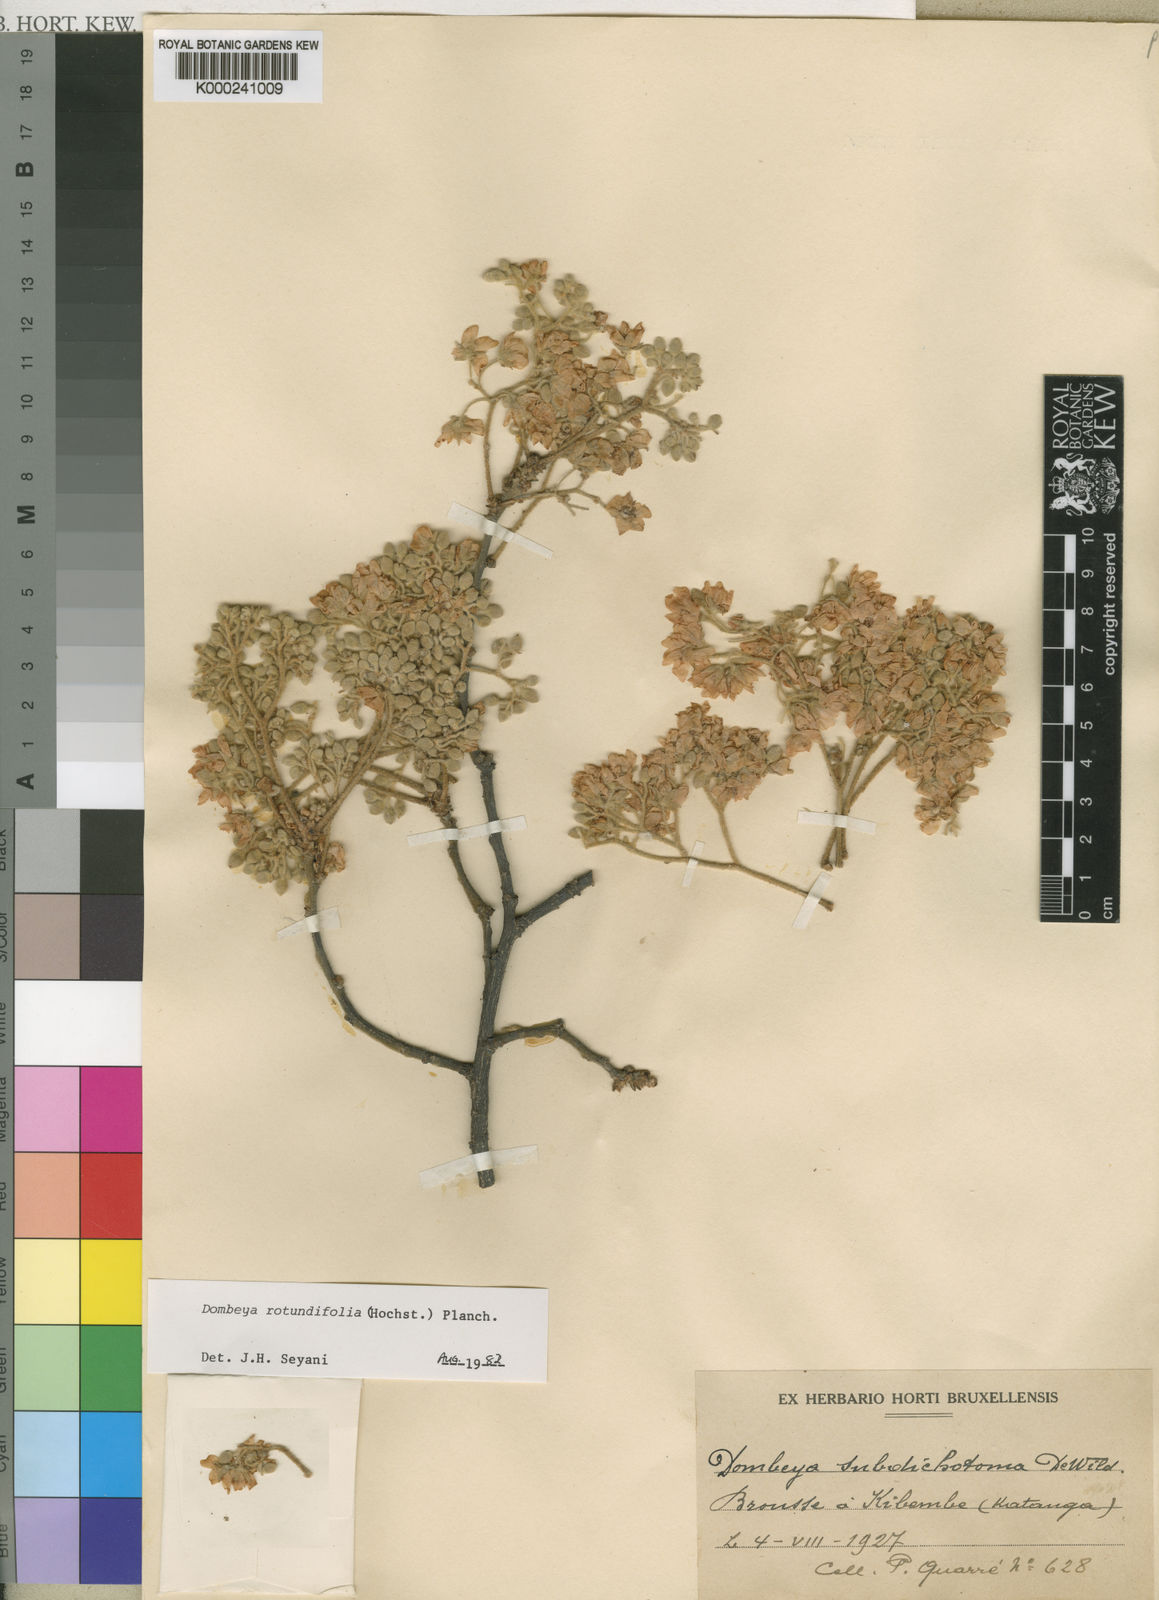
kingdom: Plantae
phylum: Tracheophyta
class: Magnoliopsida
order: Malvales
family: Malvaceae
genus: Dombeya
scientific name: Dombeya rotundifolia
